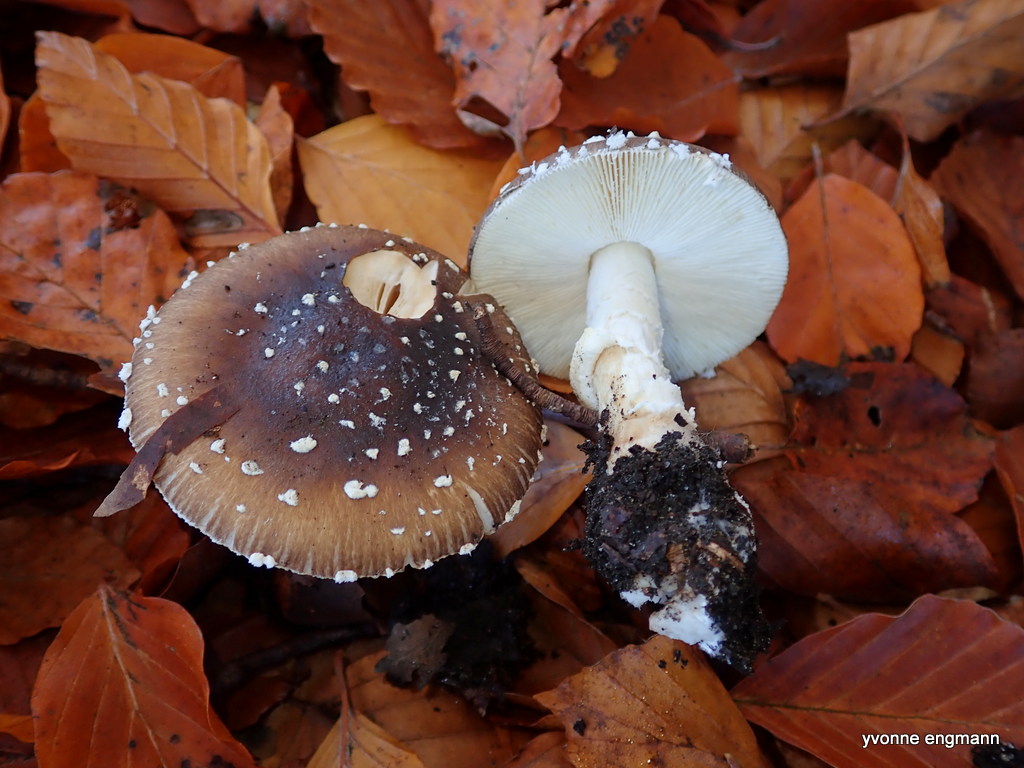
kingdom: Fungi
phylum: Basidiomycota
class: Agaricomycetes
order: Agaricales
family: Amanitaceae
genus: Amanita
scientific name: Amanita pantherina
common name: panter-fluesvamp
